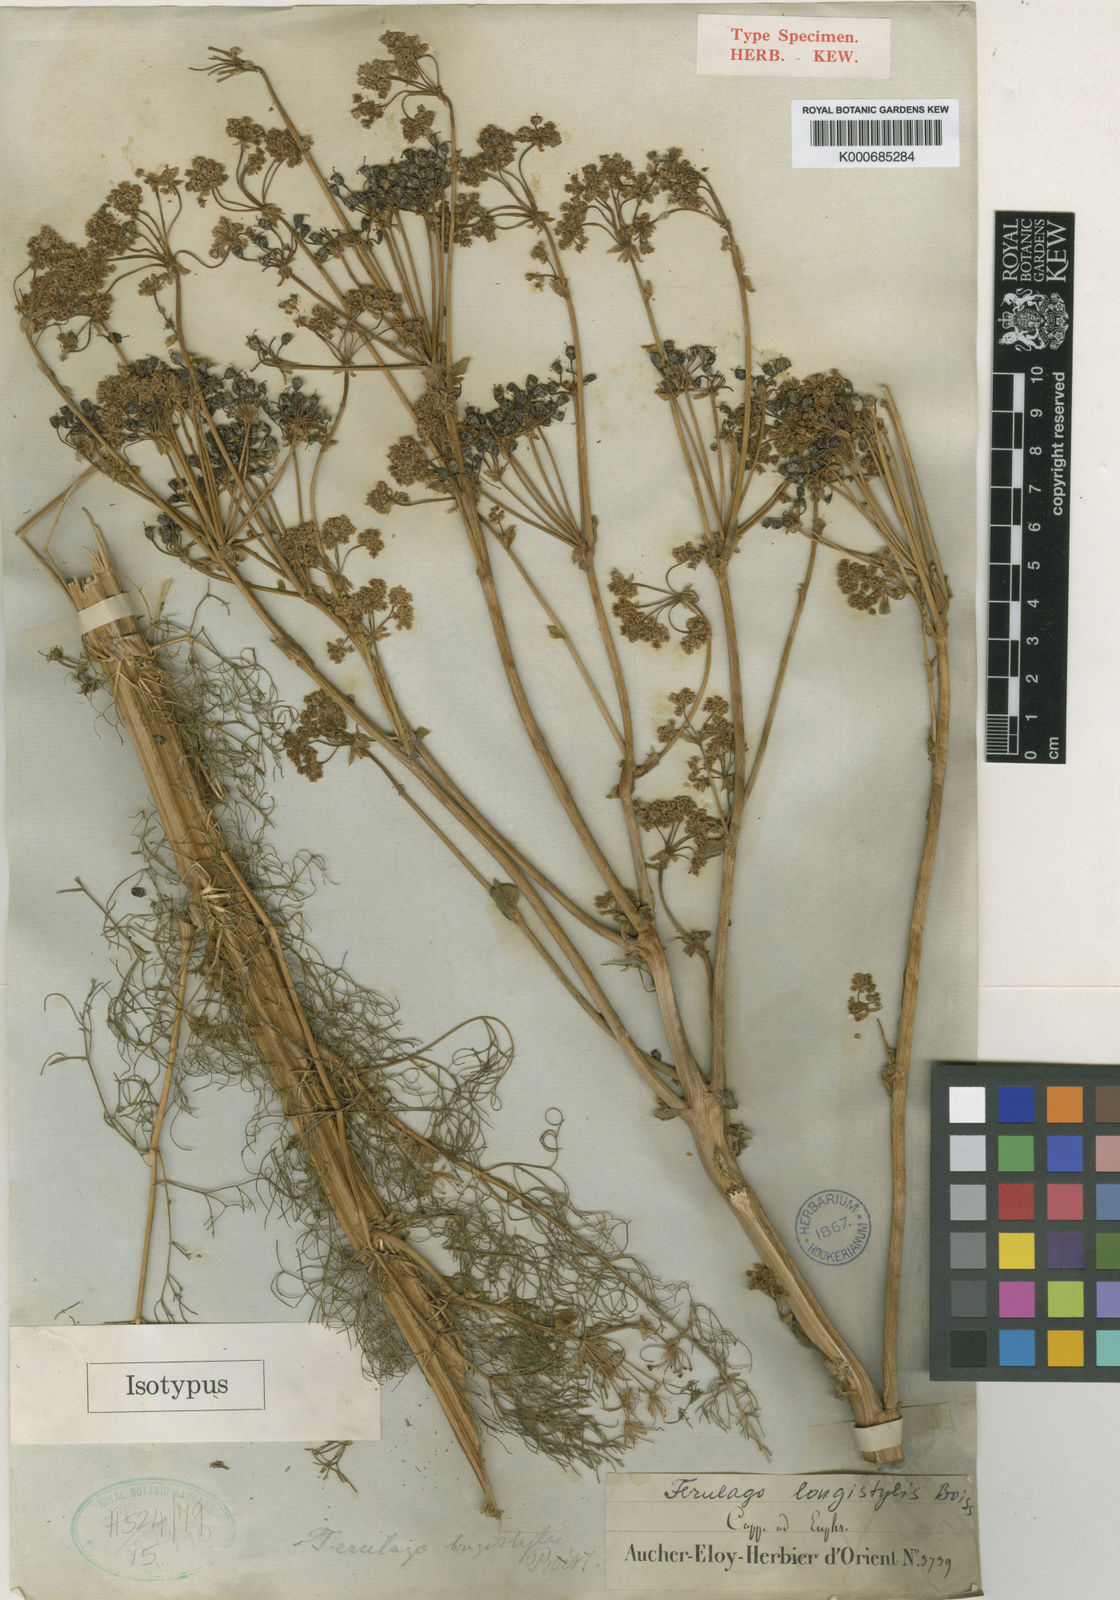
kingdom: Plantae
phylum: Tracheophyta
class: Magnoliopsida
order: Apiales
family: Apiaceae
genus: Ferulago
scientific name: Ferulago asparagifolia
